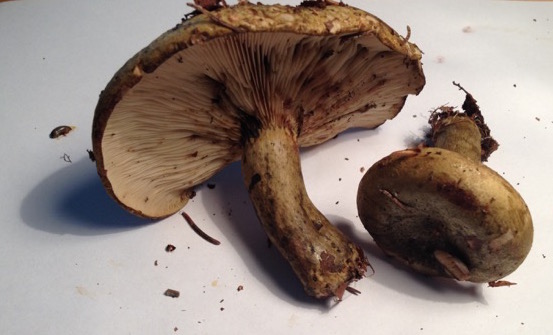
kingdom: Fungi
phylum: Basidiomycota
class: Agaricomycetes
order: Russulales
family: Russulaceae
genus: Lactarius
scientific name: Lactarius necator
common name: manddraber-mælkehat
